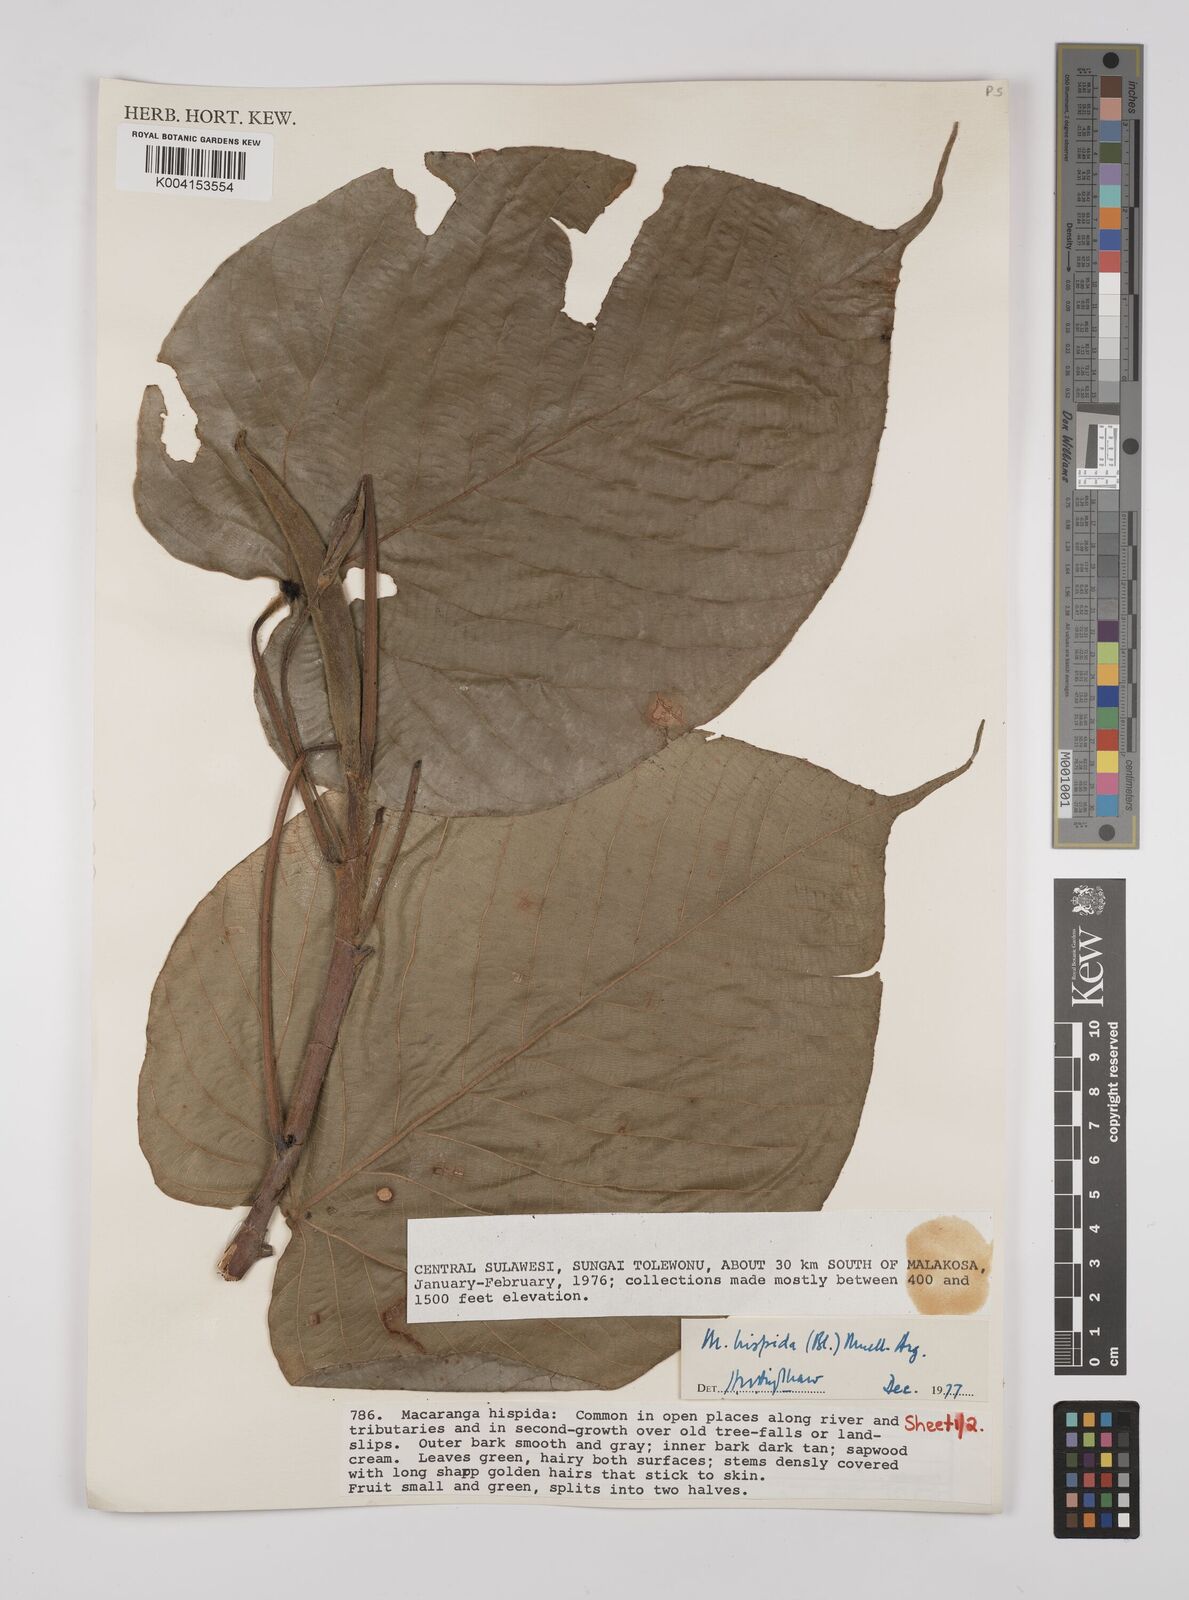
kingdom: Plantae
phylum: Tracheophyta
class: Magnoliopsida
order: Malpighiales
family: Euphorbiaceae
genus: Macaranga
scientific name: Macaranga hispida
